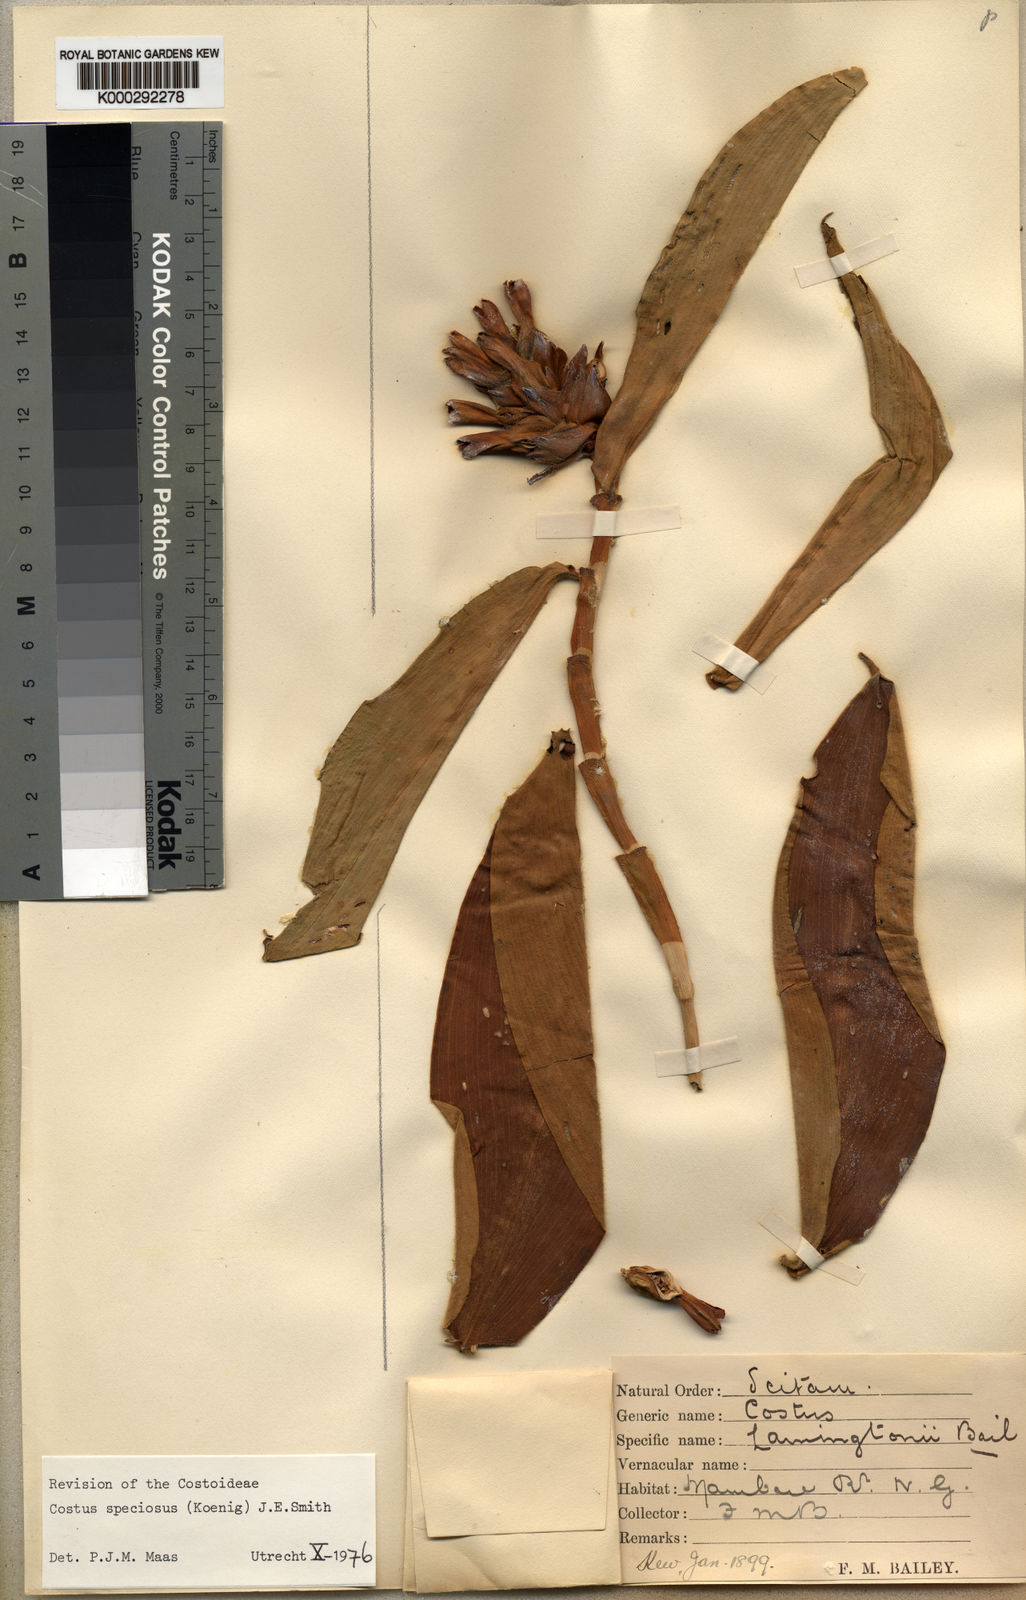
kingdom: Plantae
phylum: Tracheophyta
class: Liliopsida
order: Zingiberales
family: Costaceae
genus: Hellenia
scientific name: Hellenia speciosa
